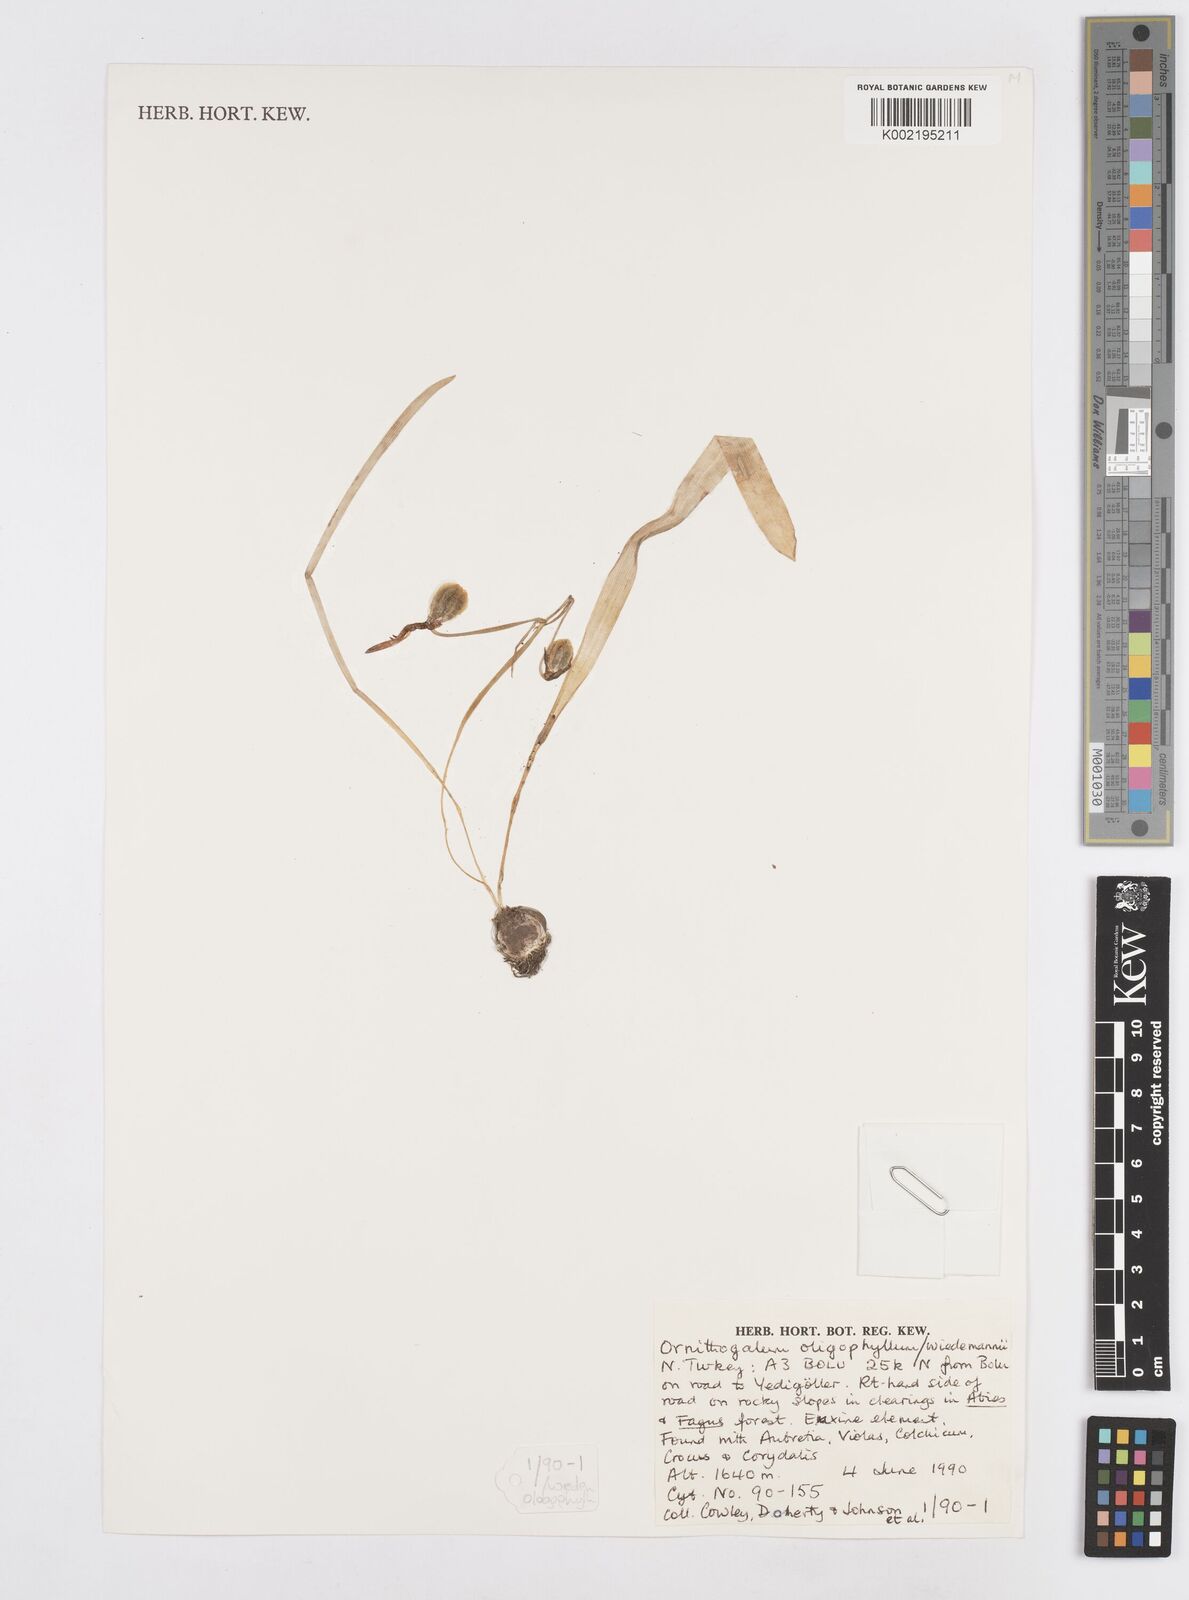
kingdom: Plantae
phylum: Tracheophyta
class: Liliopsida
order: Asparagales
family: Asparagaceae
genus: Ornithogalum
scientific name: Ornithogalum oligophyllum
